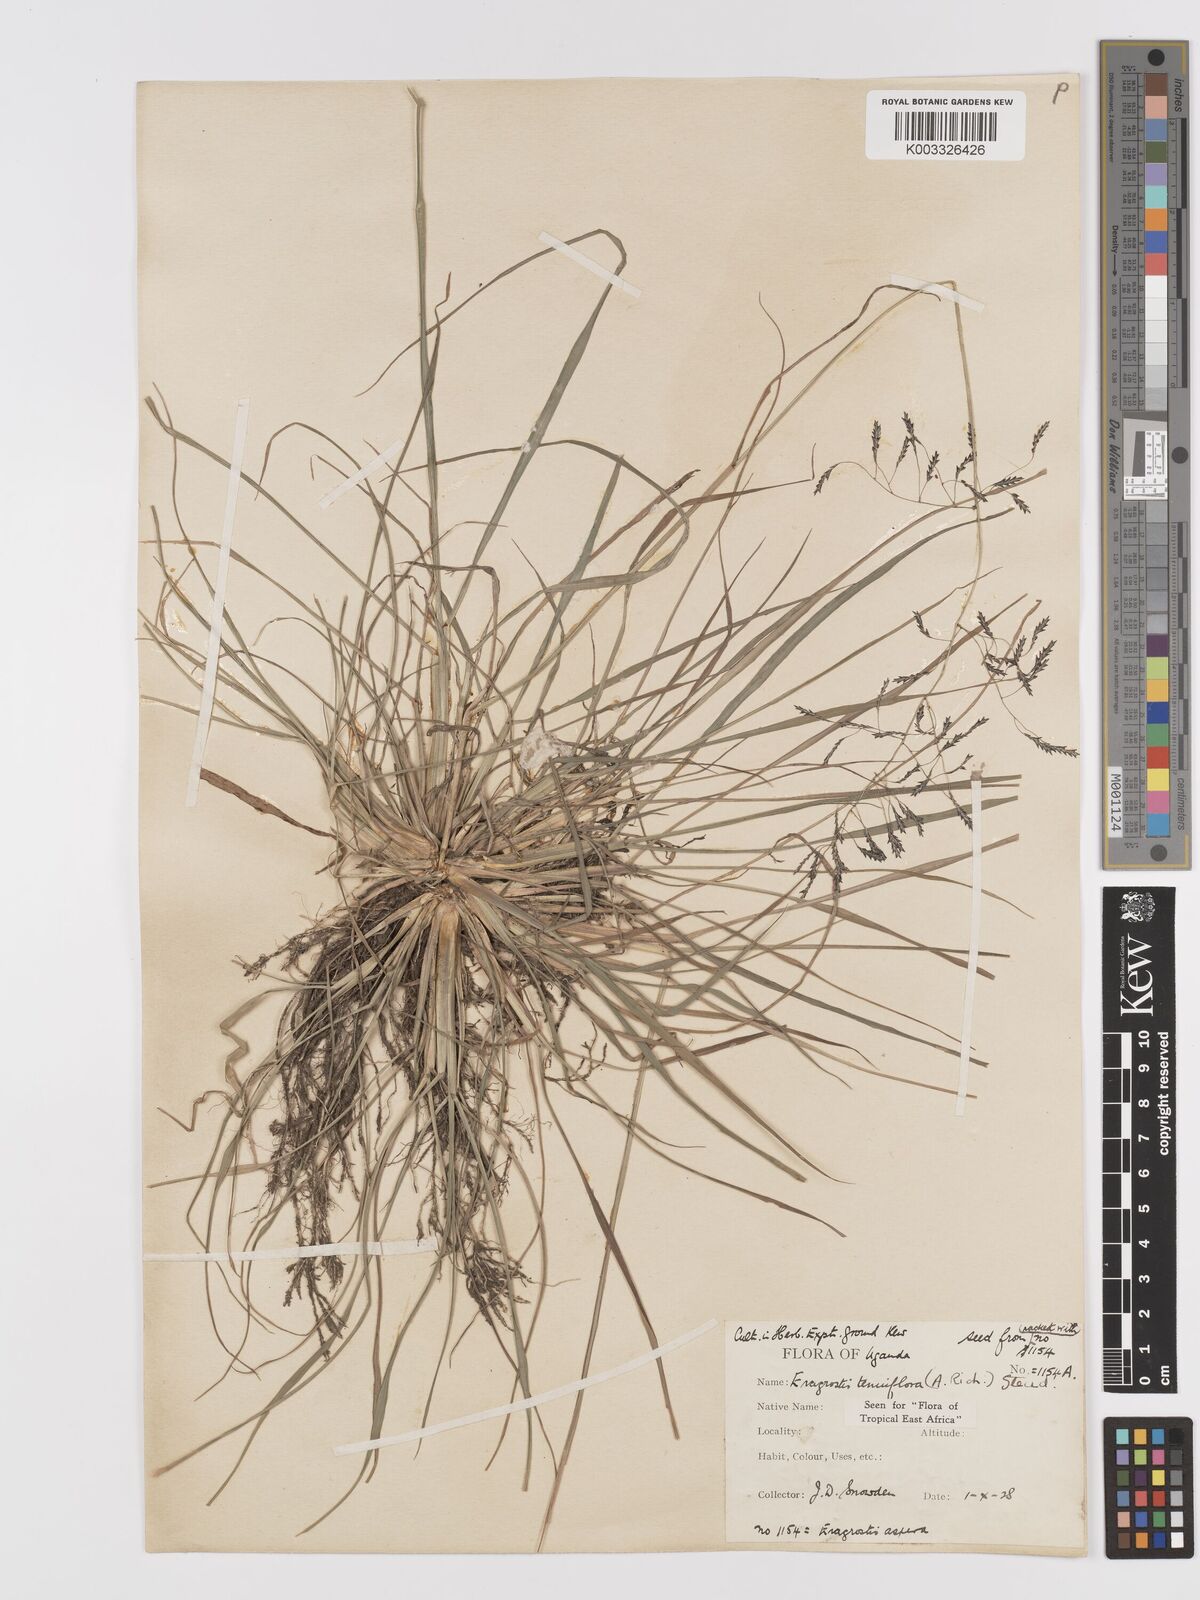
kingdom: Plantae
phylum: Tracheophyta
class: Liliopsida
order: Poales
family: Poaceae
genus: Eragrostis
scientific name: Eragrostis tenuifolia
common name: Elastic grass
